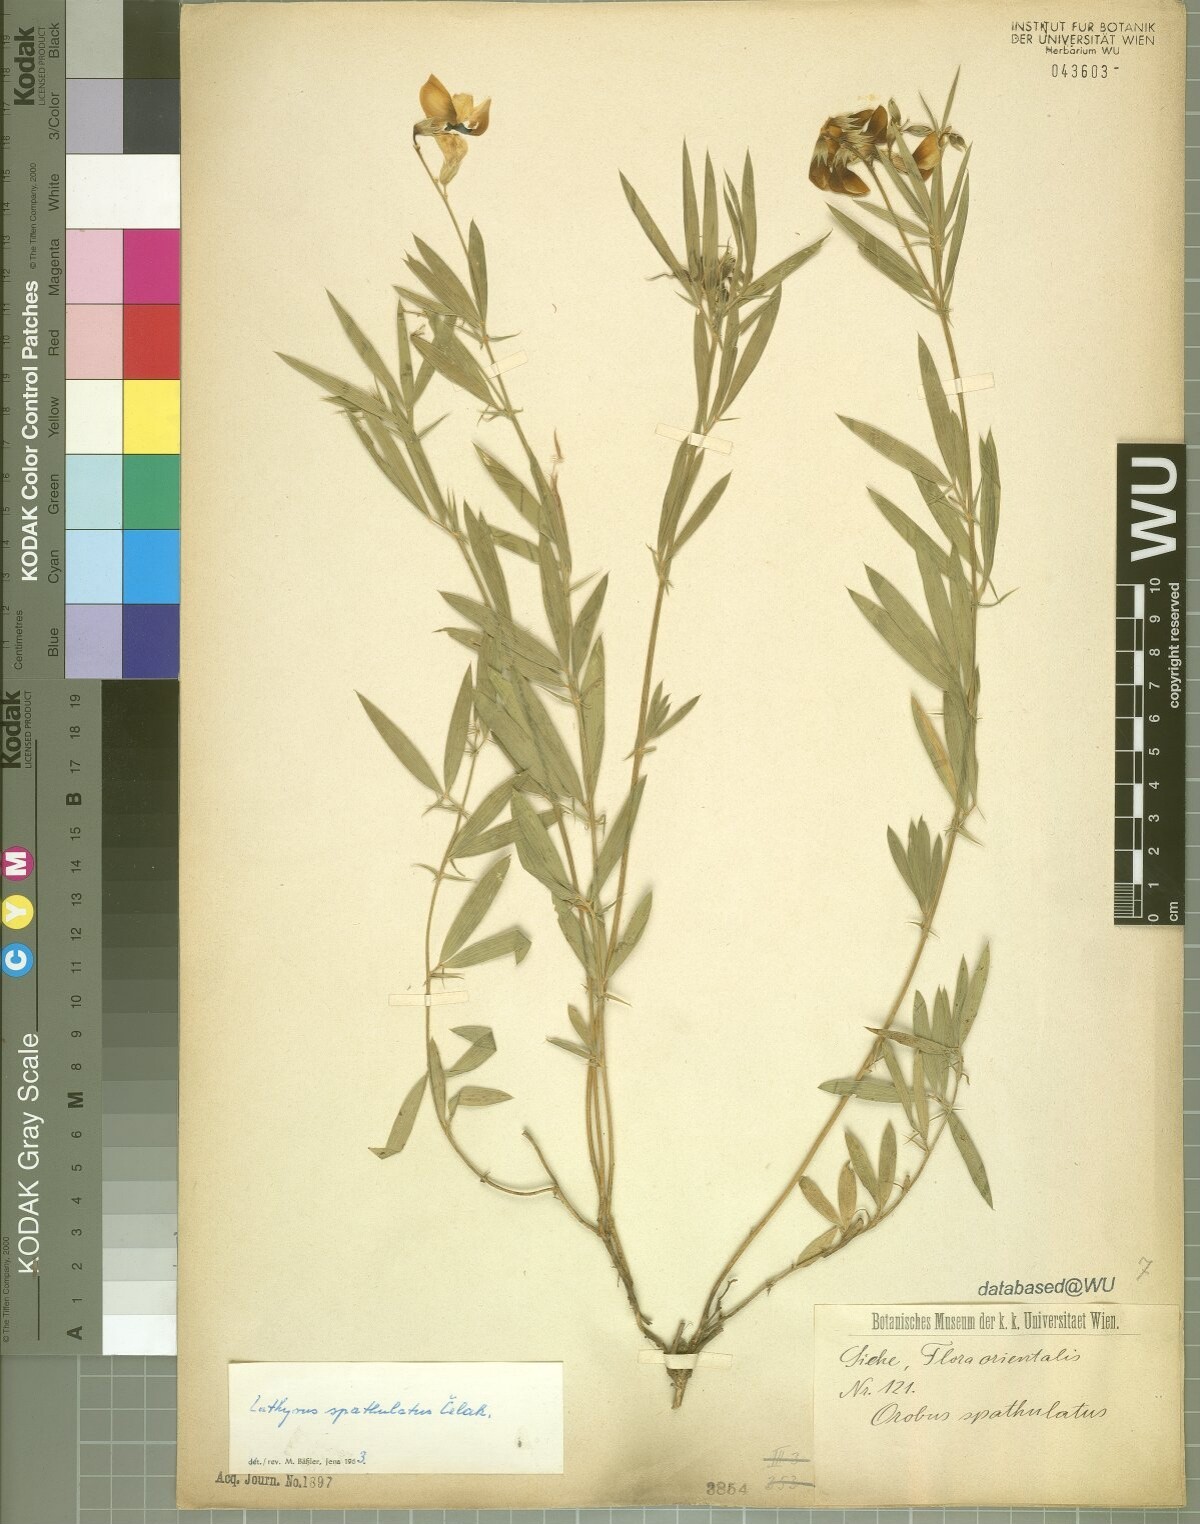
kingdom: Plantae
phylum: Tracheophyta
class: Magnoliopsida
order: Fabales
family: Fabaceae
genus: Lathyrus
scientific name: Lathyrus spathulatus
